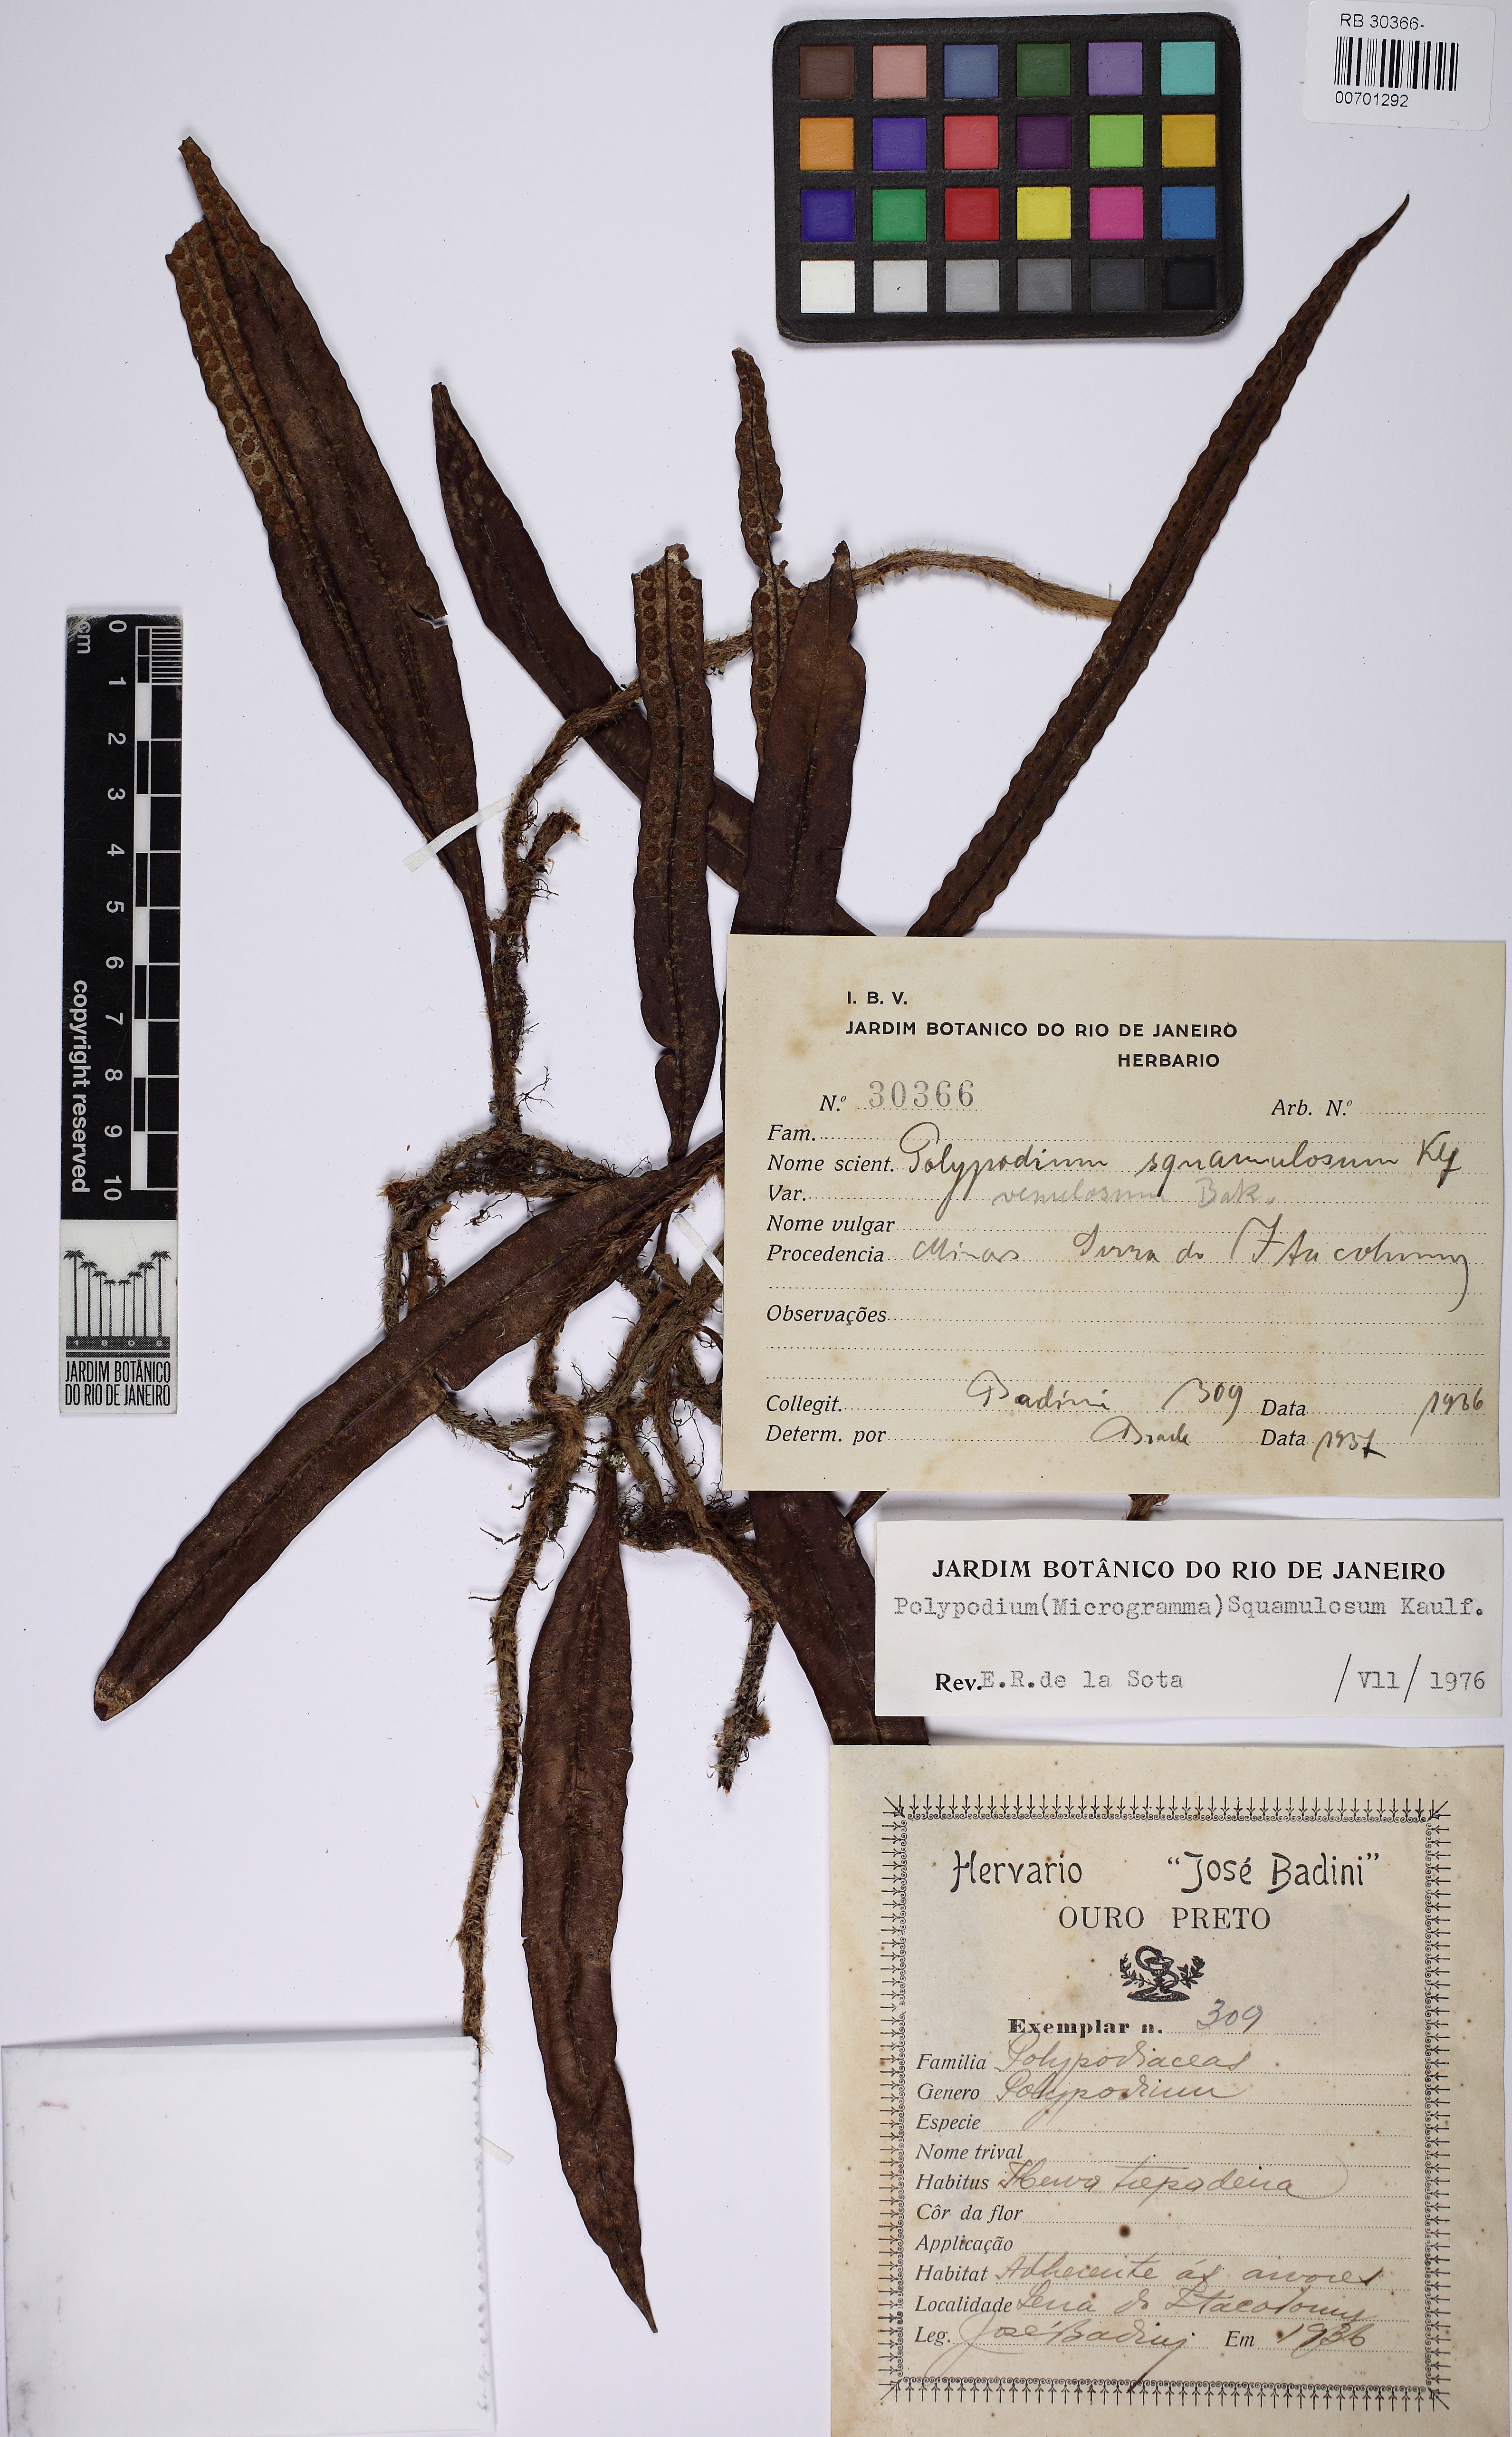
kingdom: Plantae
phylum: Tracheophyta
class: Polypodiopsida
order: Polypodiales
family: Polypodiaceae
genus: Microgramma
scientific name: Microgramma squamulosa
